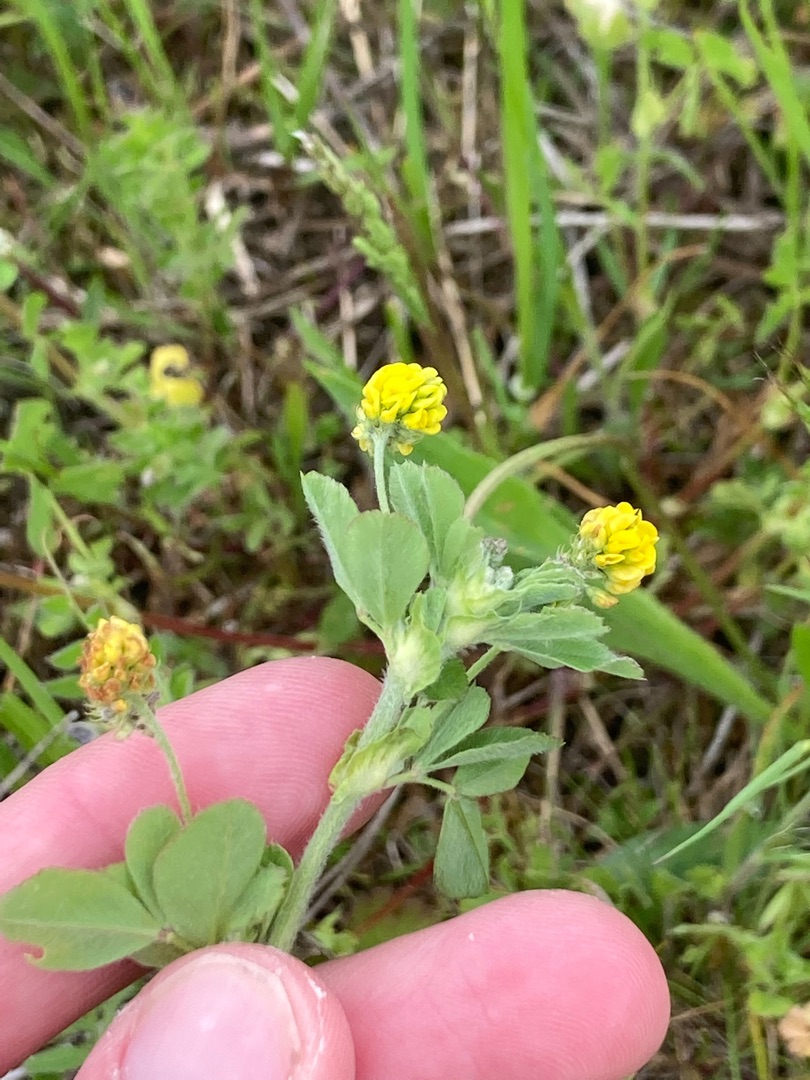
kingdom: Plantae
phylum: Tracheophyta
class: Magnoliopsida
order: Fabales
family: Fabaceae
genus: Medicago
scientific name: Medicago lupulina
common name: Humle-sneglebælg
